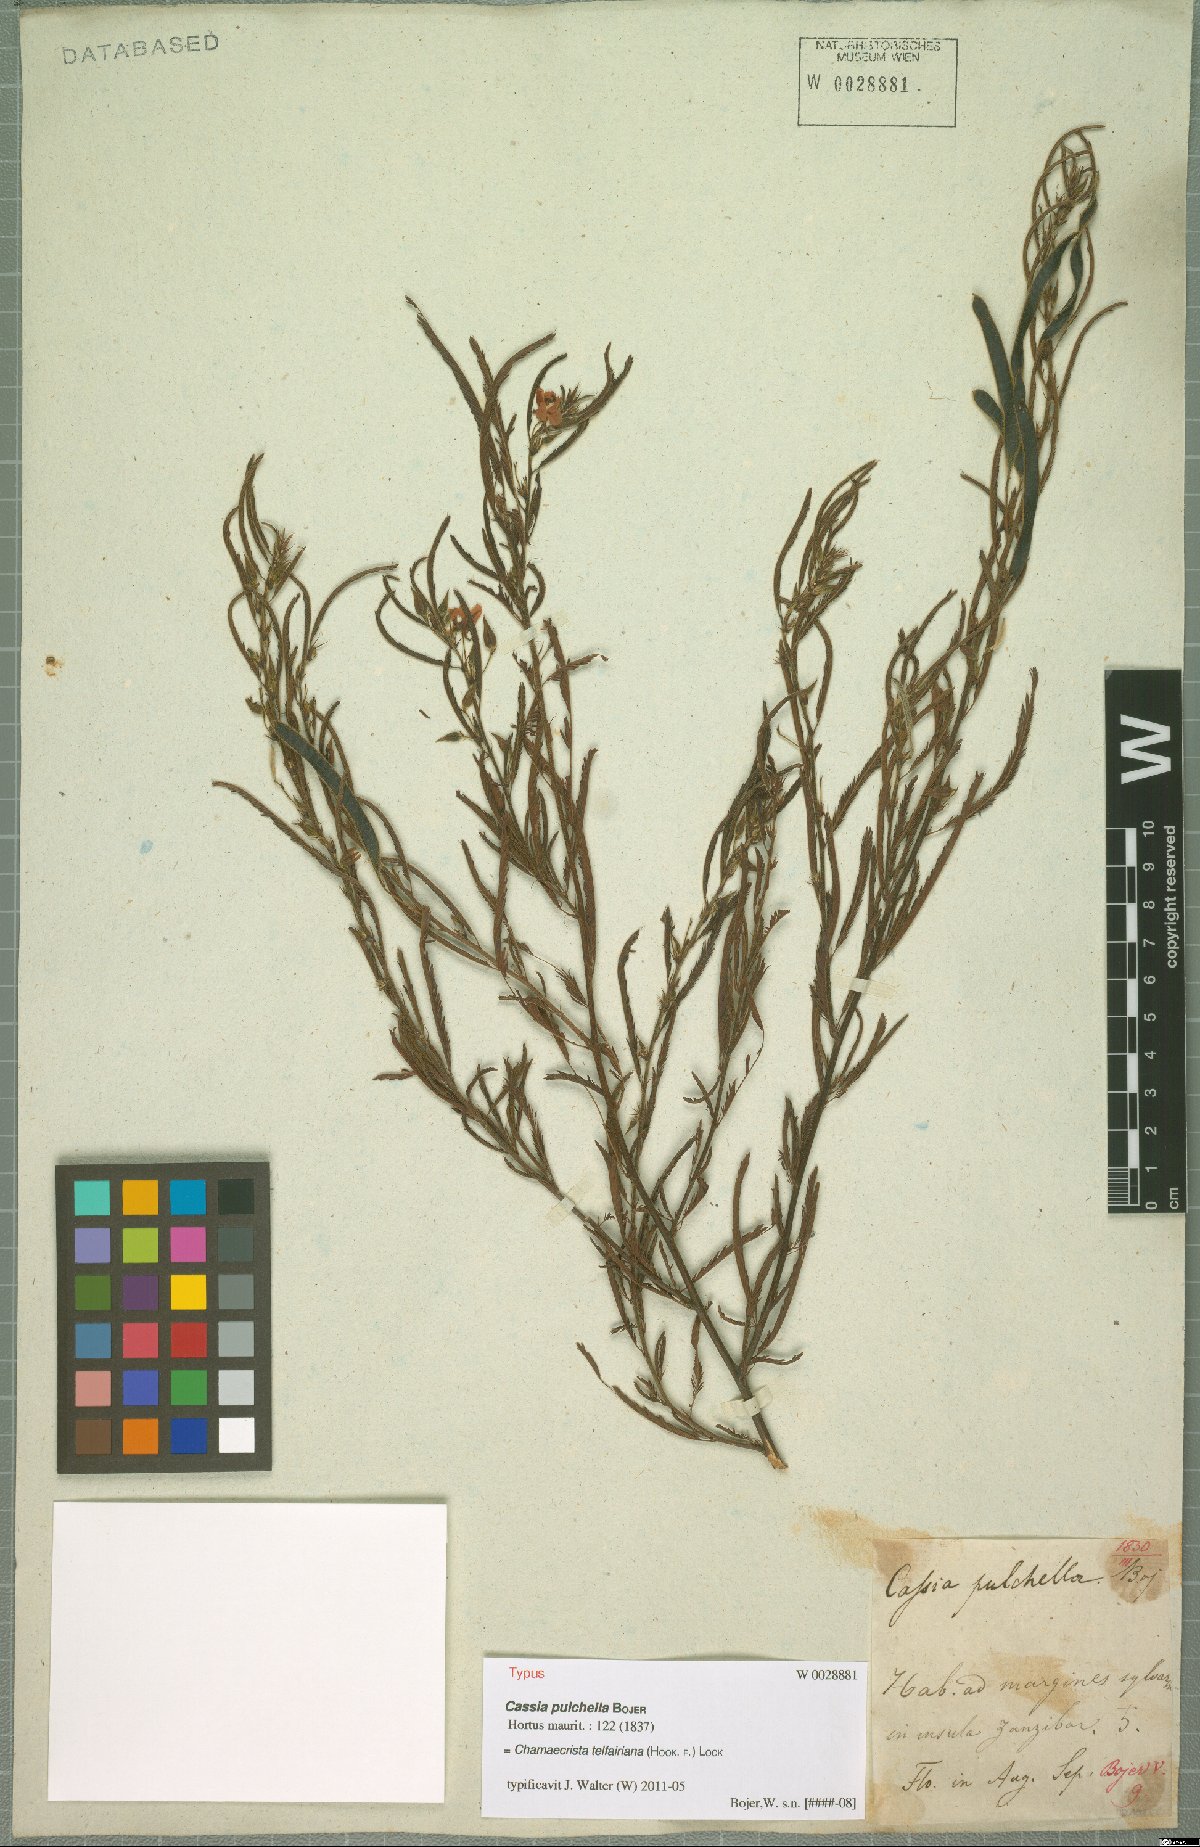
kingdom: Plantae
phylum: Tracheophyta
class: Magnoliopsida
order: Fabales
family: Fabaceae
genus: Chamaecrista
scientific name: Chamaecrista telfairiana
